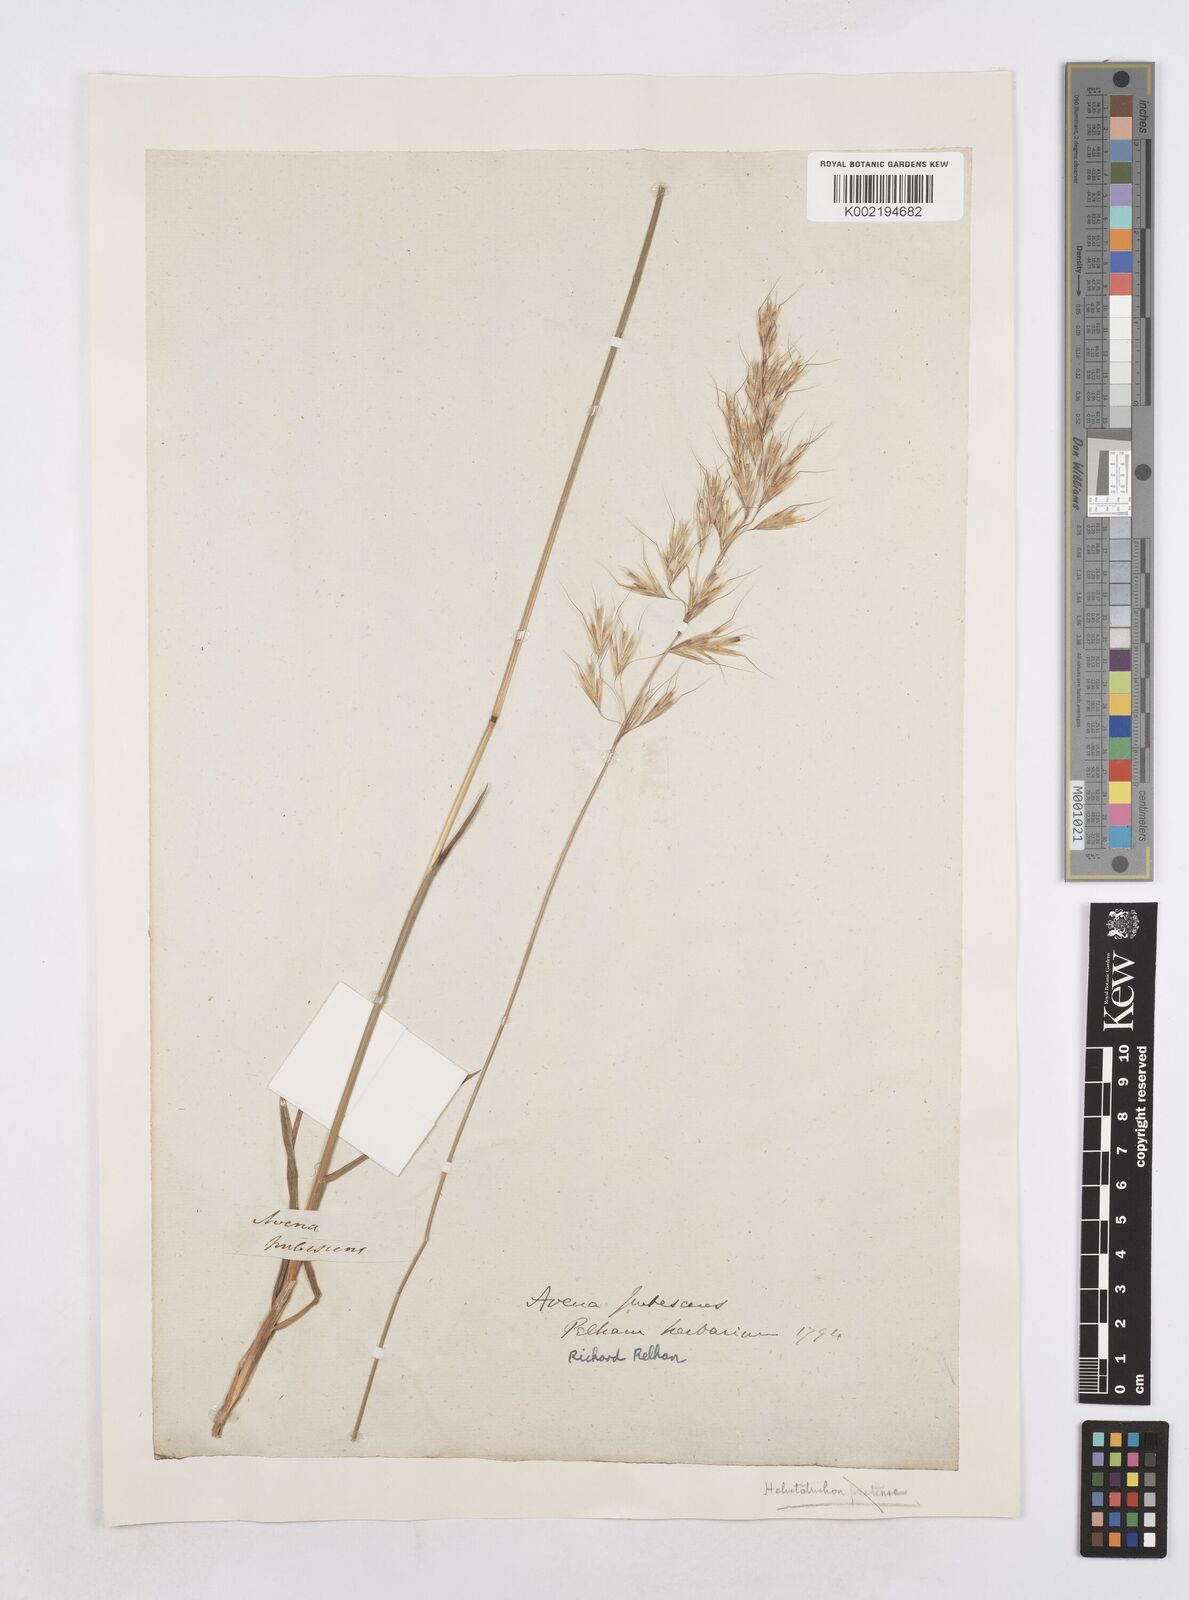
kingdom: Plantae
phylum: Tracheophyta
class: Liliopsida
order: Poales
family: Poaceae
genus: Avenula
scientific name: Avenula pubescens
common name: Downy alpine oatgrass
